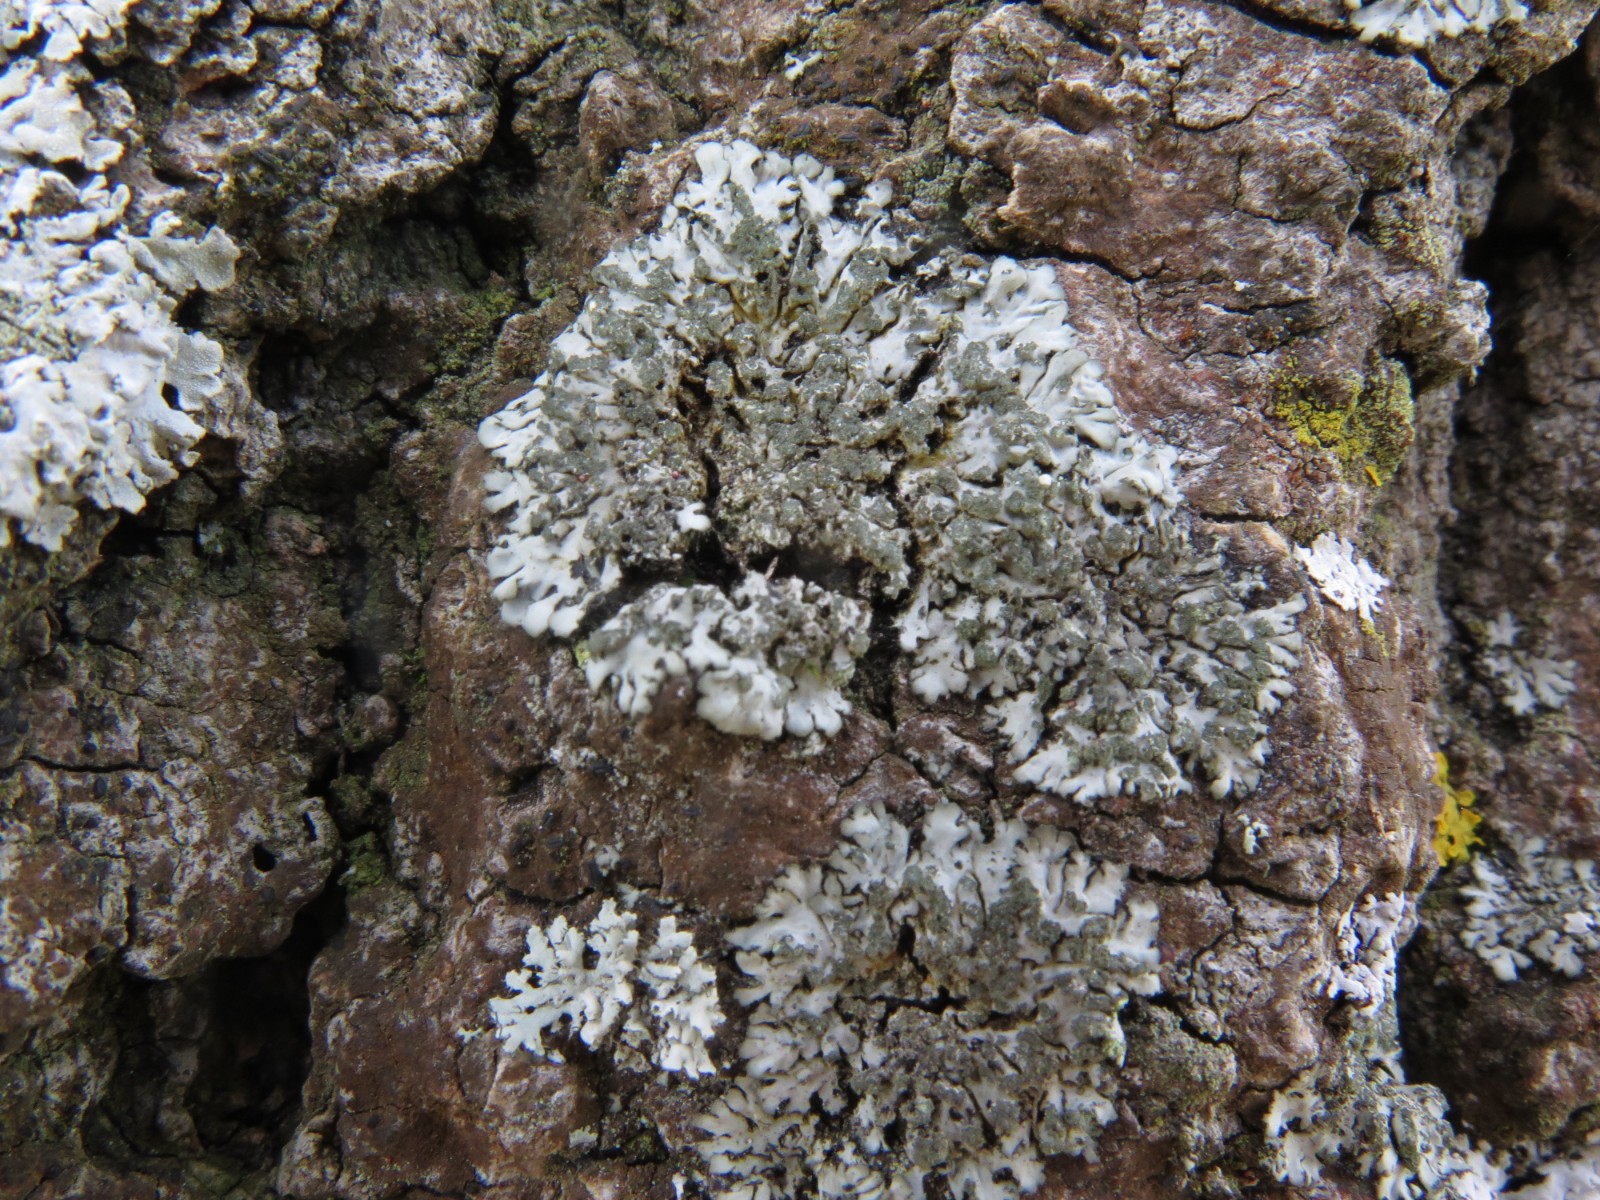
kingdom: Fungi
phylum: Ascomycota
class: Lecanoromycetes
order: Caliciales
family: Physciaceae
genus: Phaeophyscia
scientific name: Phaeophyscia orbicularis
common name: grågrøn rosetlav
